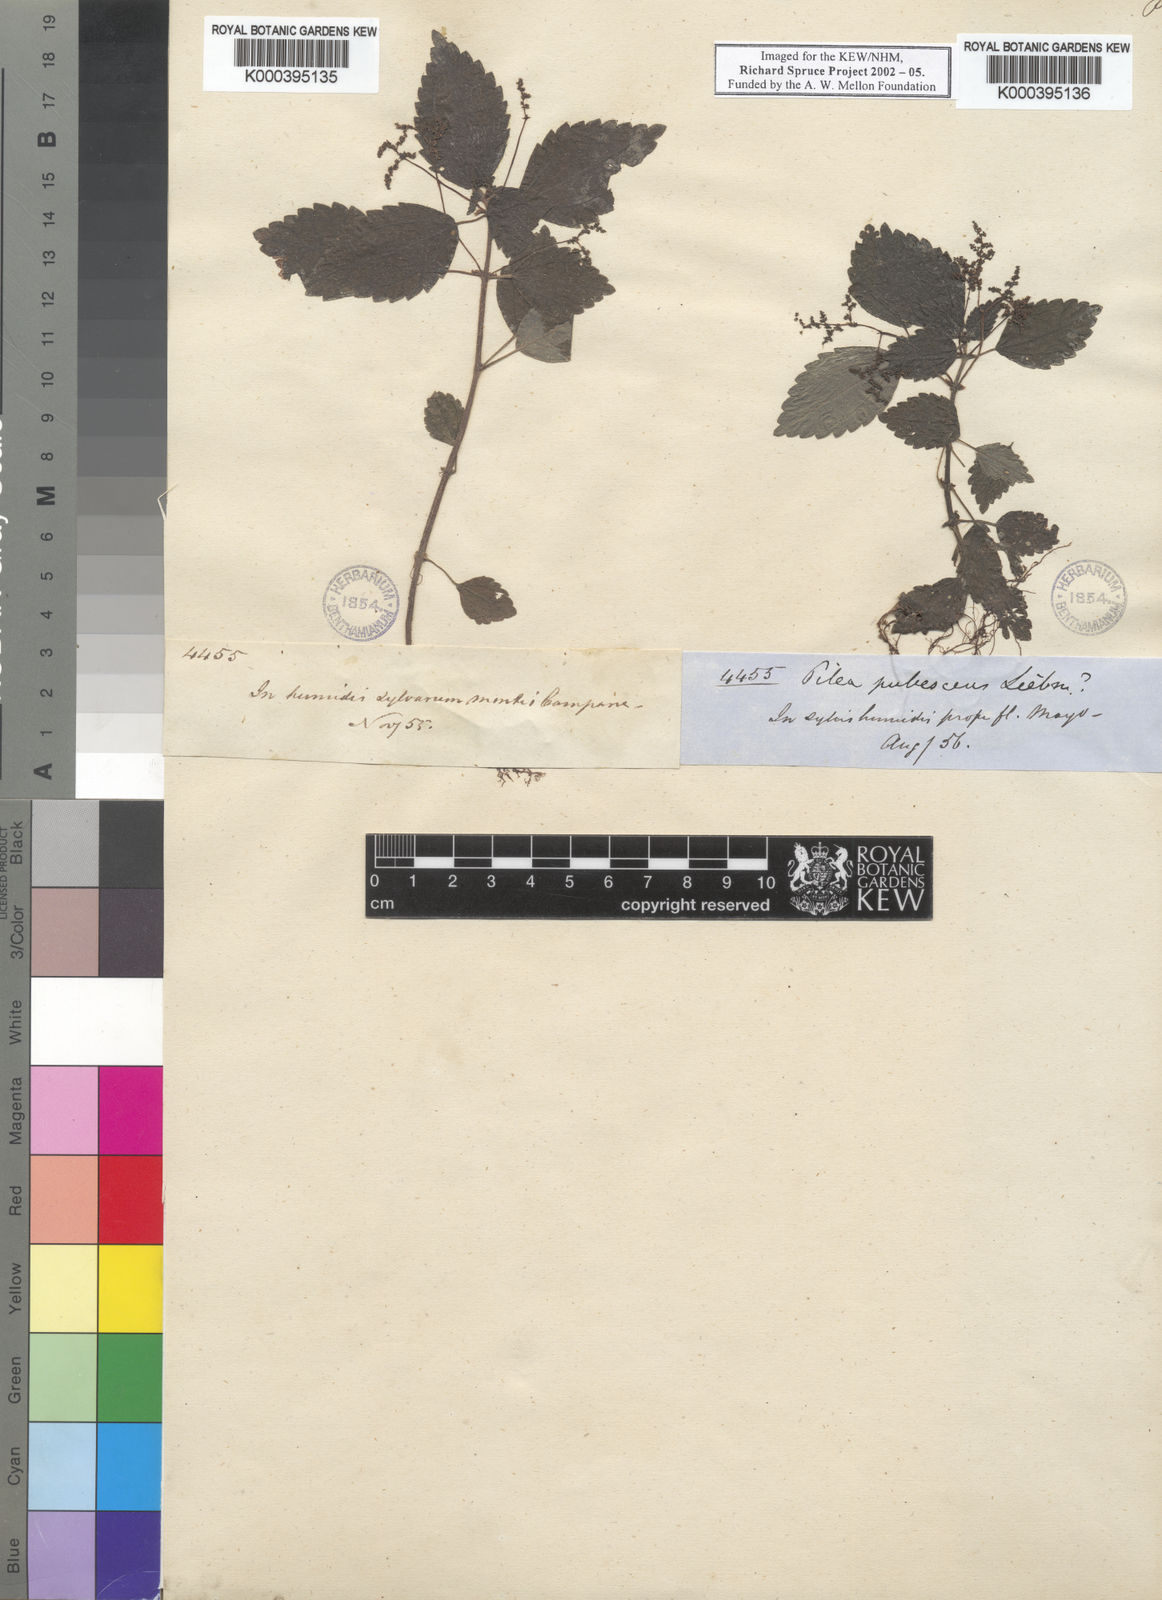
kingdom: Plantae
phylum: Tracheophyta
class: Magnoliopsida
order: Rosales
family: Urticaceae
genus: Pilea
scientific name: Pilea pubescens
